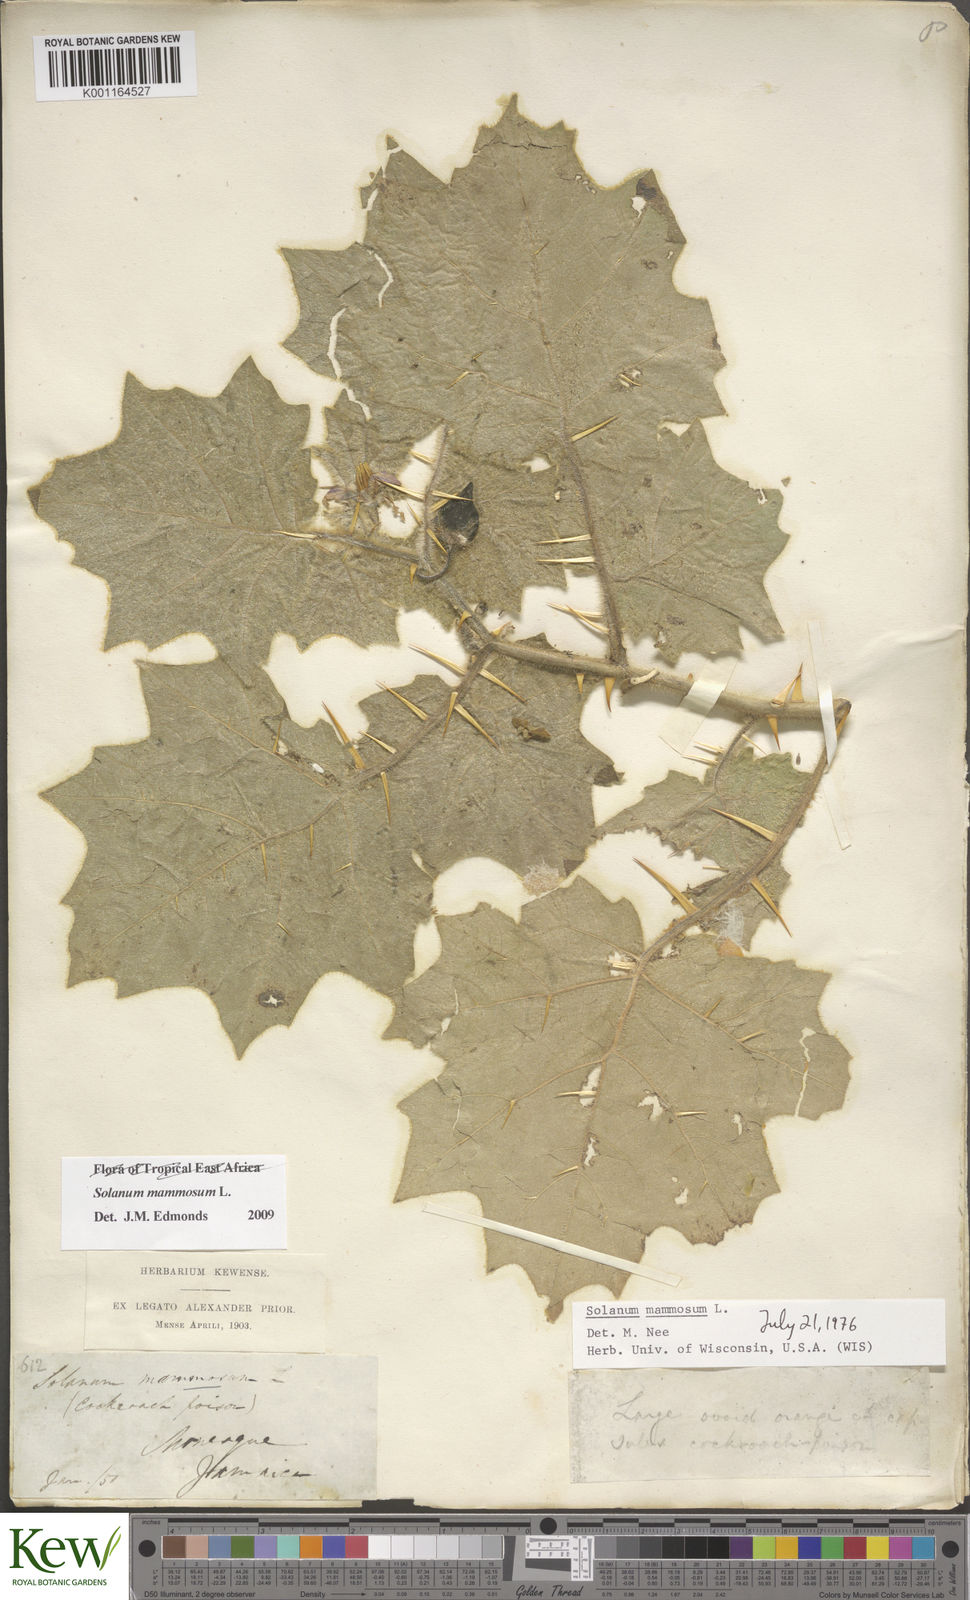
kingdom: Plantae
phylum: Tracheophyta
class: Magnoliopsida
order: Solanales
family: Solanaceae
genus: Solanum
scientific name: Solanum mammosum
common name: Nipple fruit
